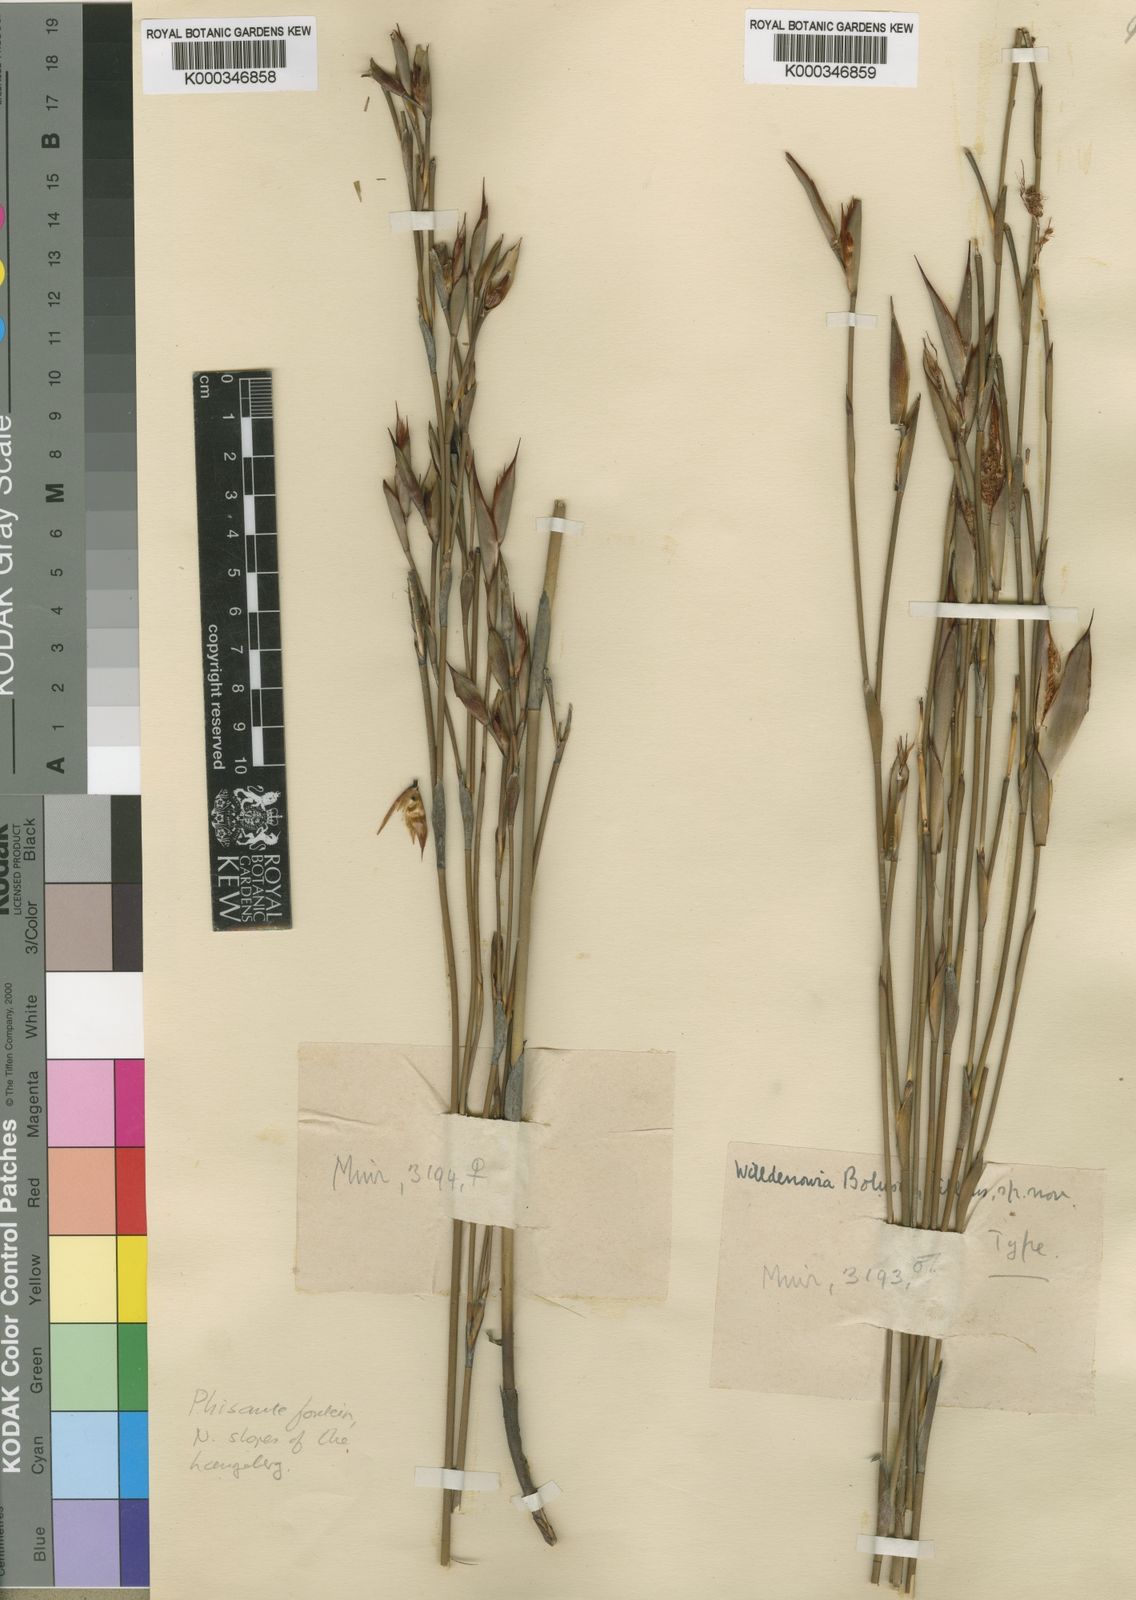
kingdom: Plantae
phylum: Tracheophyta
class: Liliopsida
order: Poales
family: Restionaceae
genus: Willdenowia
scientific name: Willdenowia bolusii
